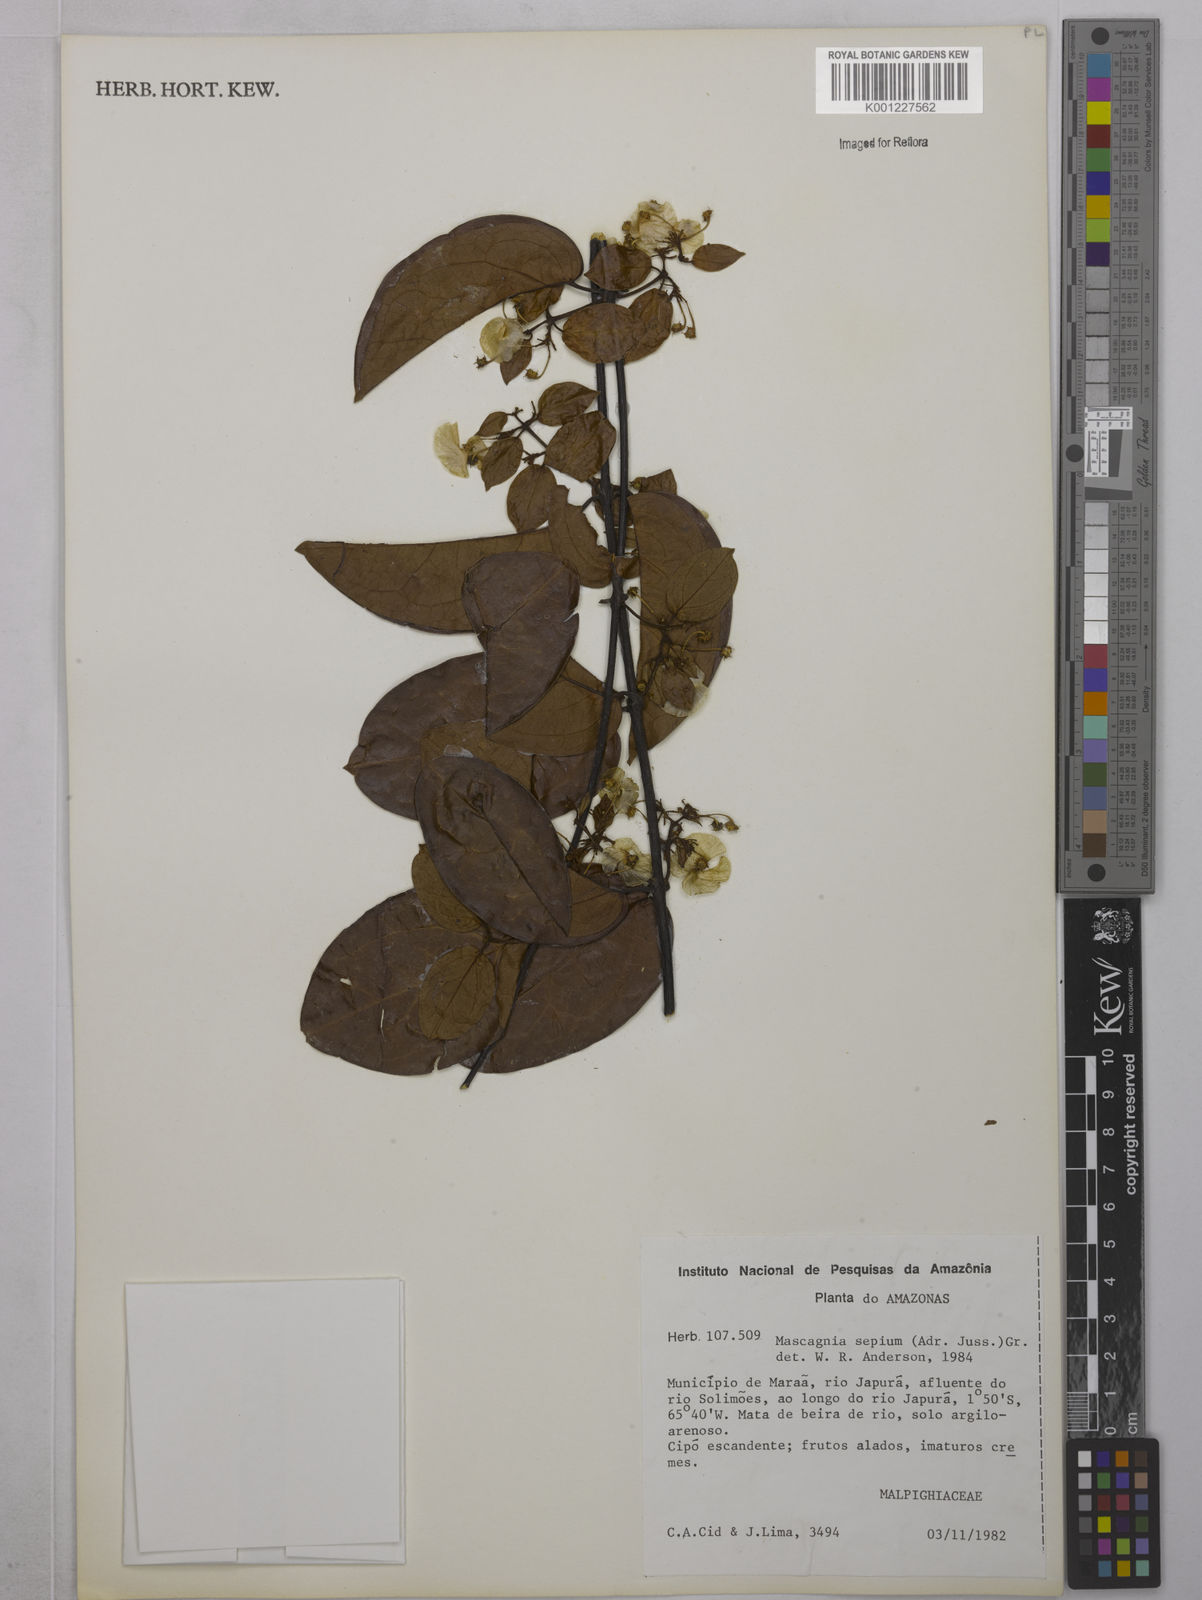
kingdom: Plantae
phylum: Tracheophyta
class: Magnoliopsida
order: Malpighiales
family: Malpighiaceae
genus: Mascagnia
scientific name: Mascagnia sepium
